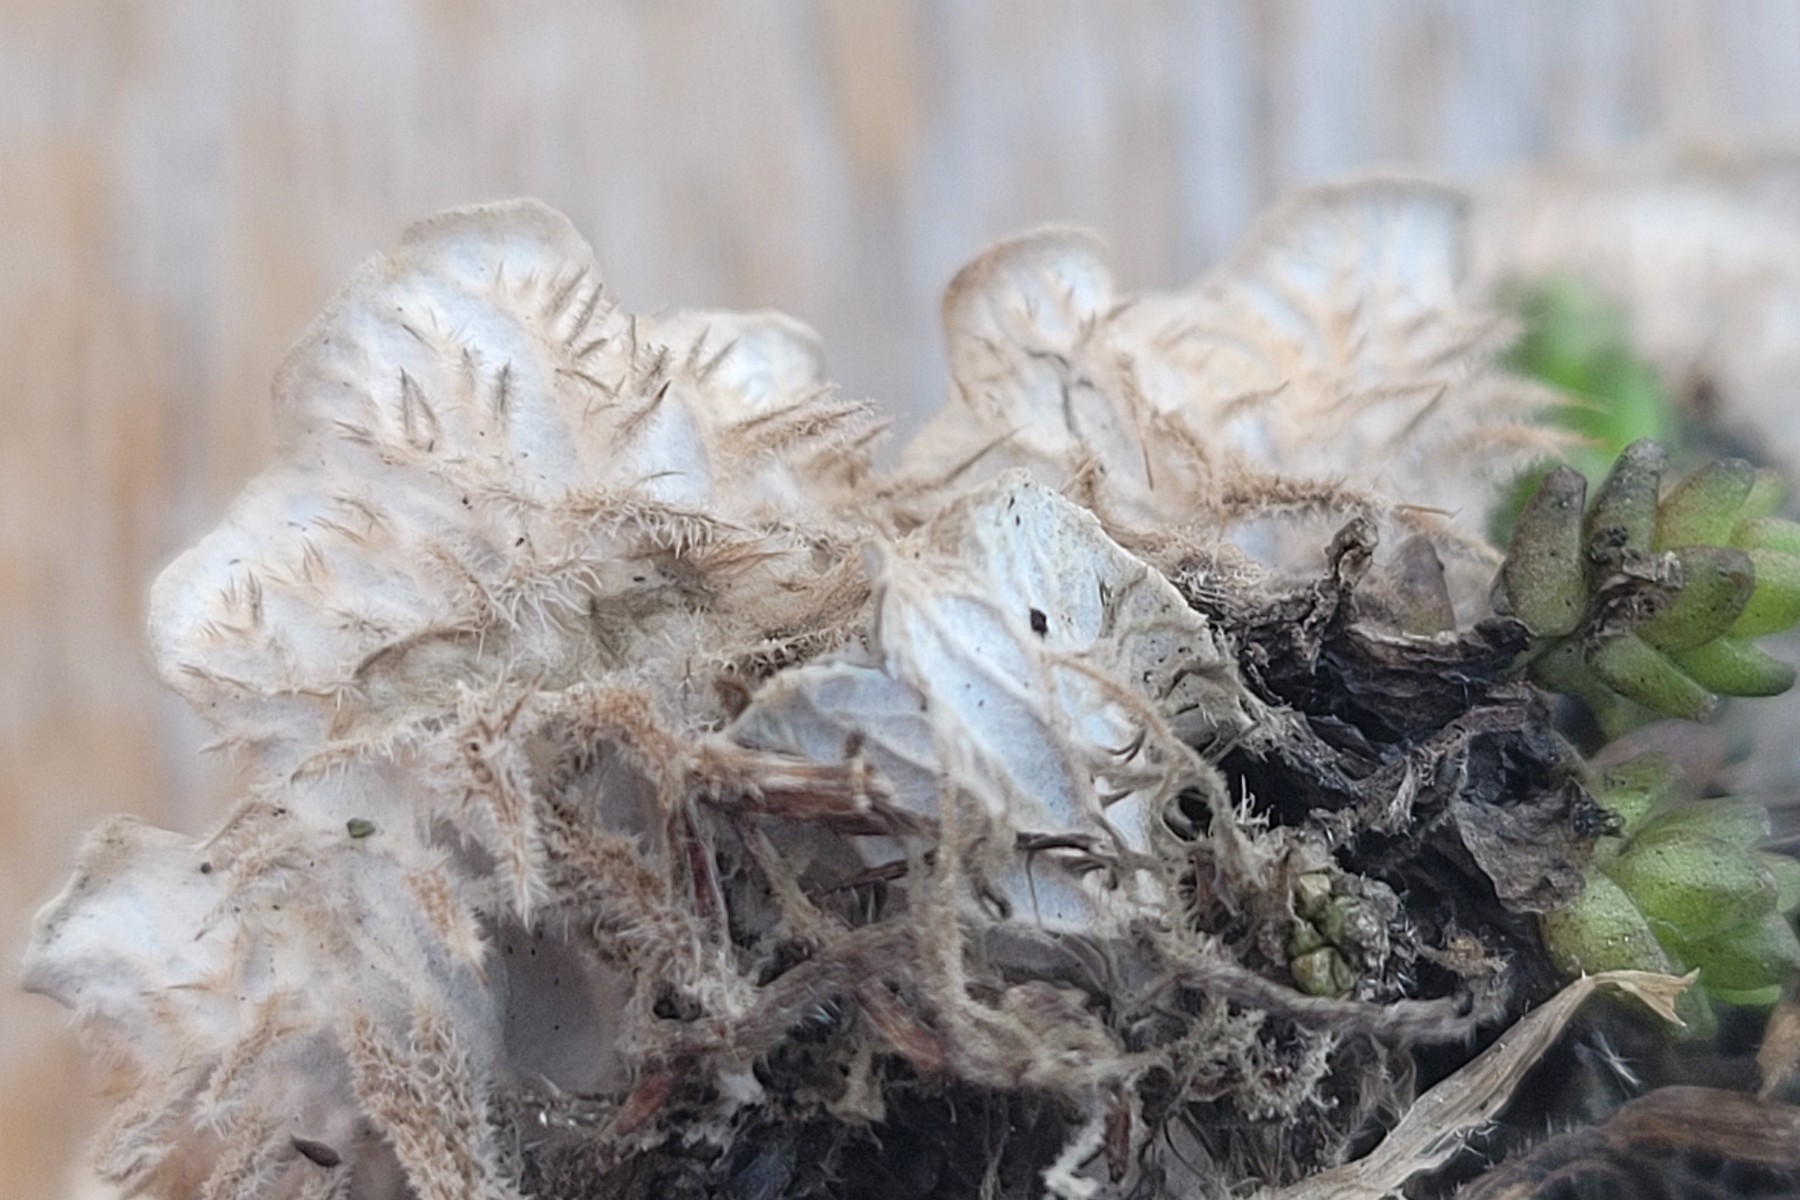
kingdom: Fungi
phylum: Ascomycota
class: Lecanoromycetes
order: Peltigerales
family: Peltigeraceae
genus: Peltigera
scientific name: Peltigera membranacea
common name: tynd skjoldlav
